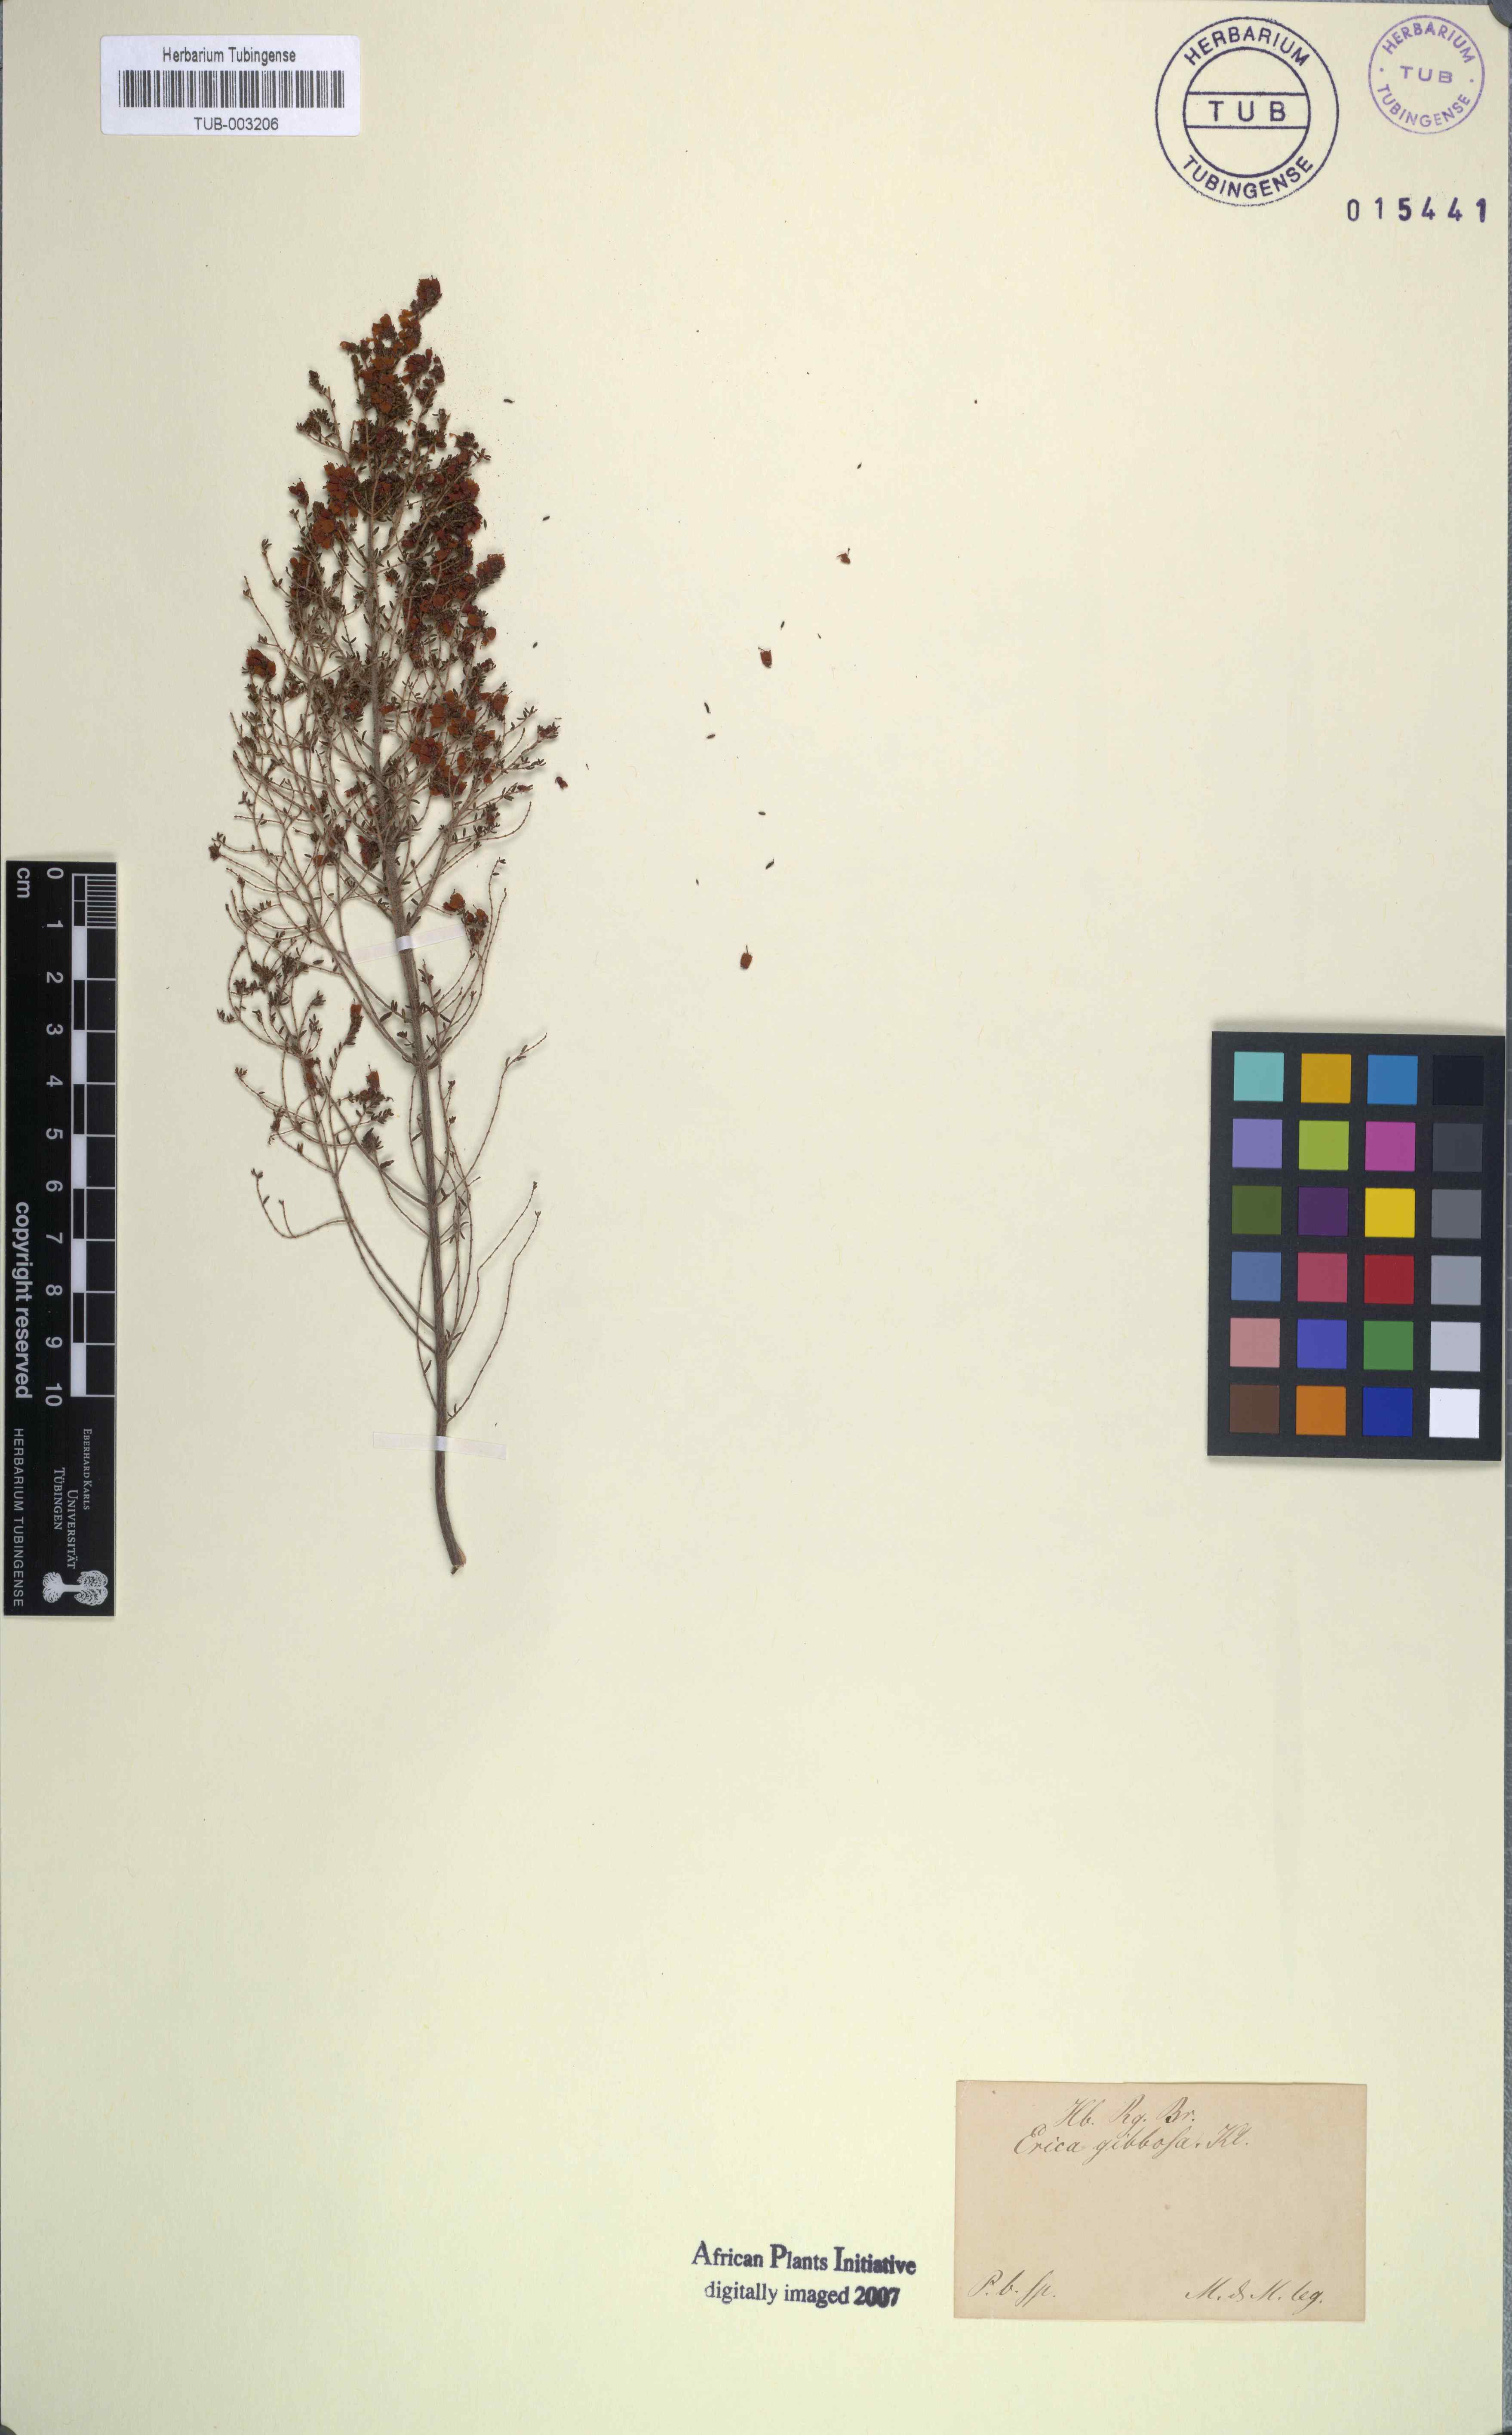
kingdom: Plantae
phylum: Tracheophyta
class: Magnoliopsida
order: Ericales
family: Ericaceae
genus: Erica
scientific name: Erica scabriuscula
